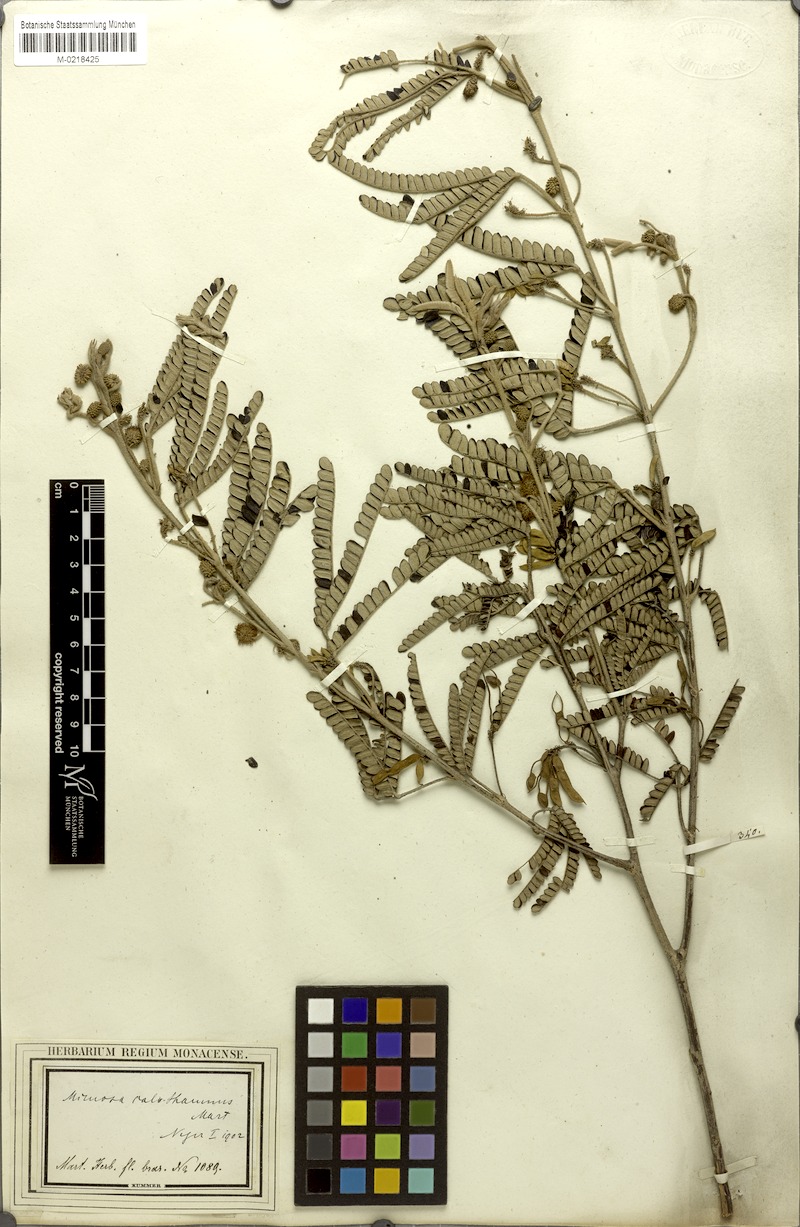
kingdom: Plantae
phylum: Tracheophyta
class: Magnoliopsida
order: Fabales
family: Fabaceae
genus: Mimosa
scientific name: Mimosa aurivillus
